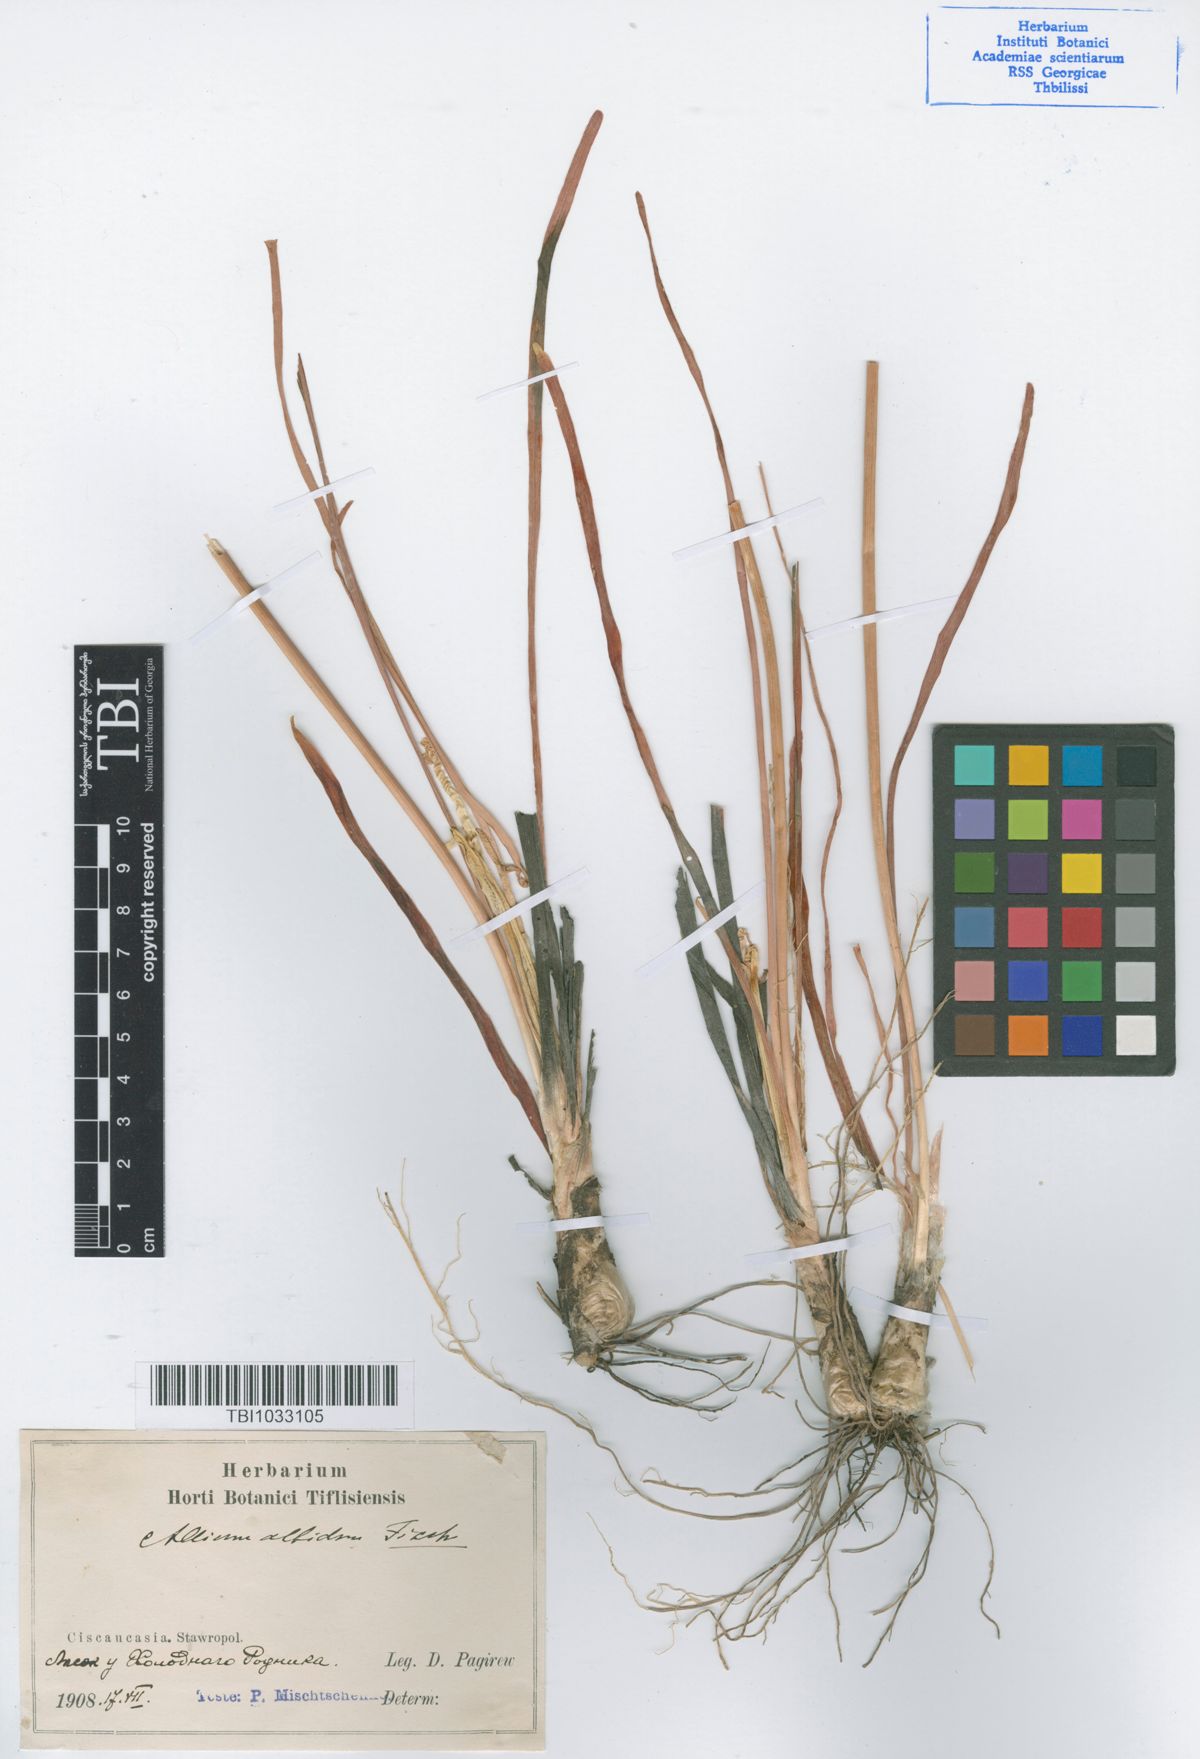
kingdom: Plantae
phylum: Tracheophyta
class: Liliopsida
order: Asparagales
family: Amaryllidaceae
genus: Allium
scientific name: Allium denudatum
